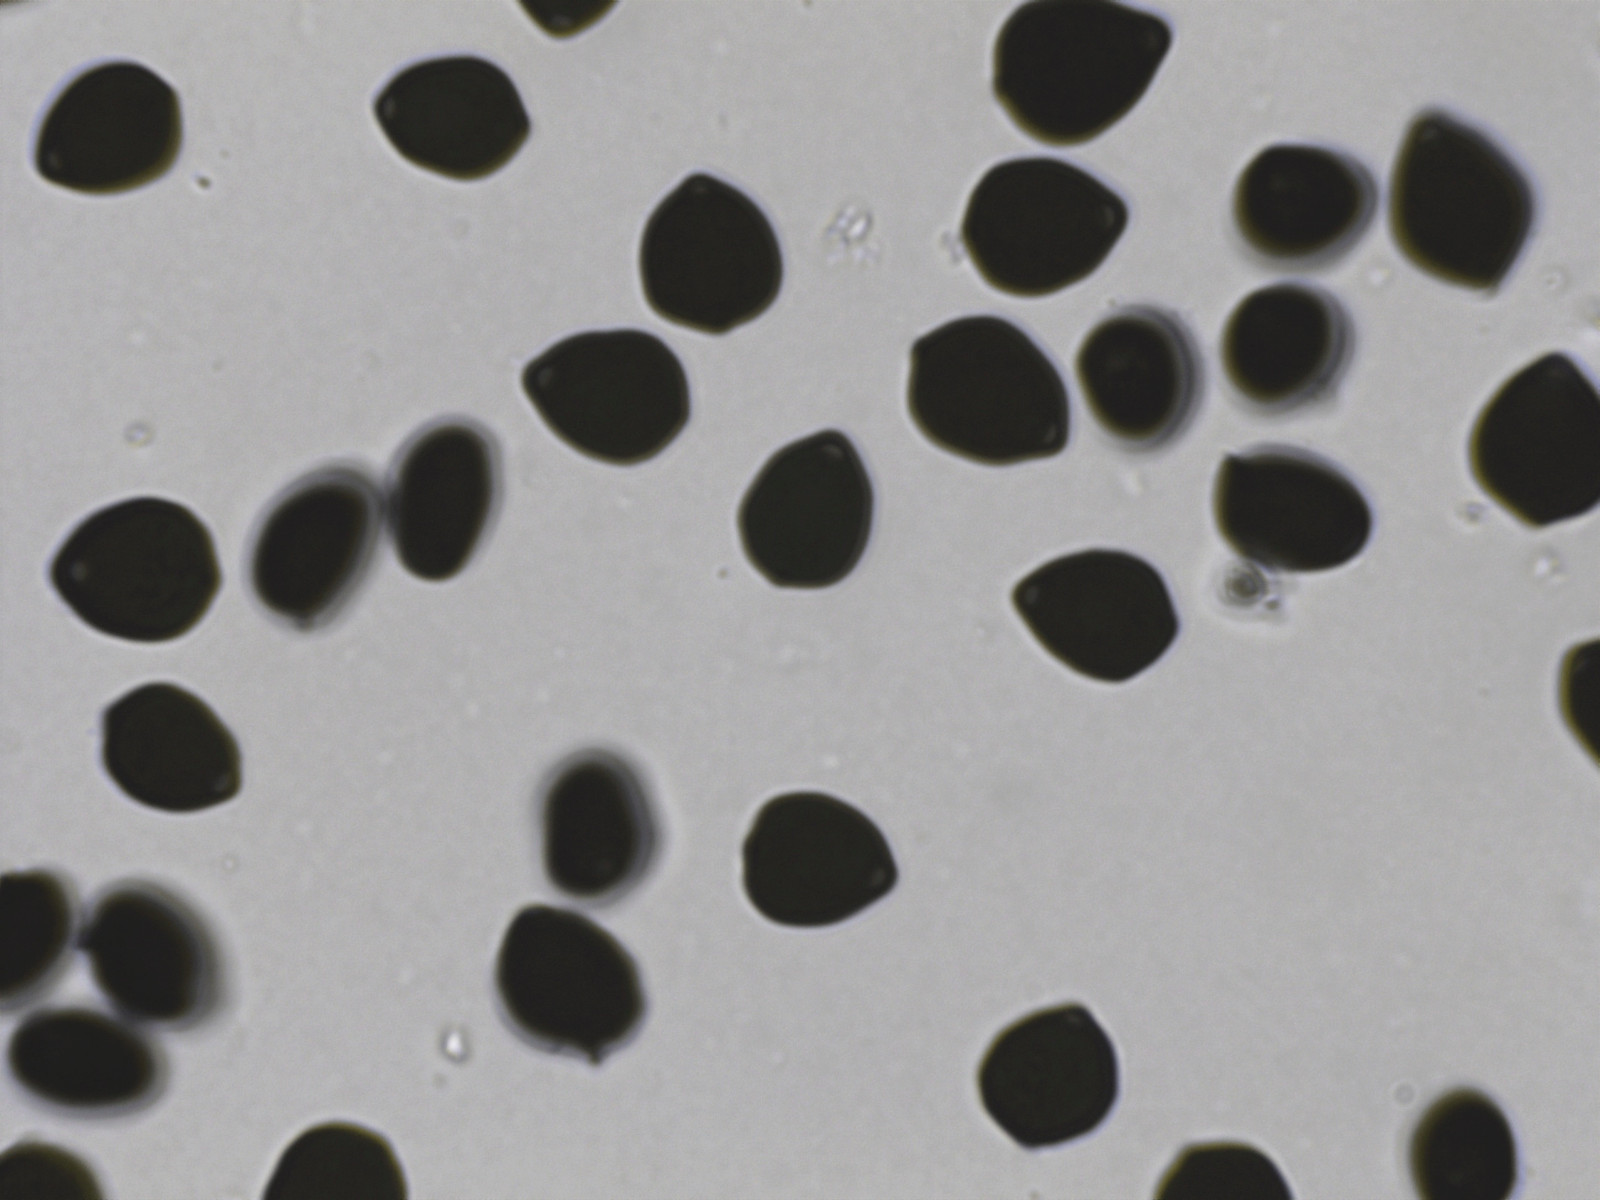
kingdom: Fungi
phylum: Basidiomycota
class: Agaricomycetes
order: Agaricales
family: Psathyrellaceae
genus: Parasola
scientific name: Parasola lactea
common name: glat hjulhat
